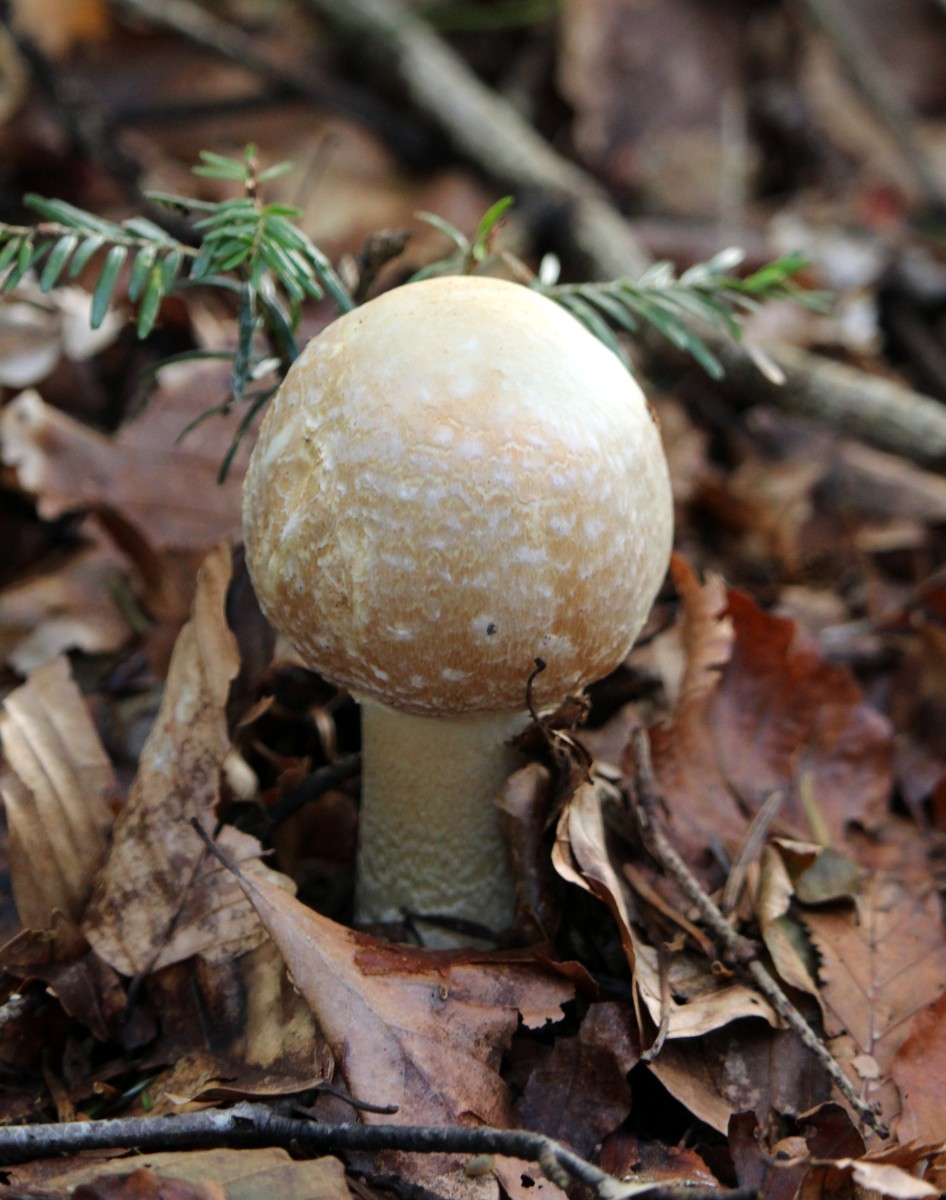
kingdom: Fungi
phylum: Basidiomycota
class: Agaricomycetes
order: Agaricales
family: Agaricaceae
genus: Agaricus
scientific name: Agaricus
